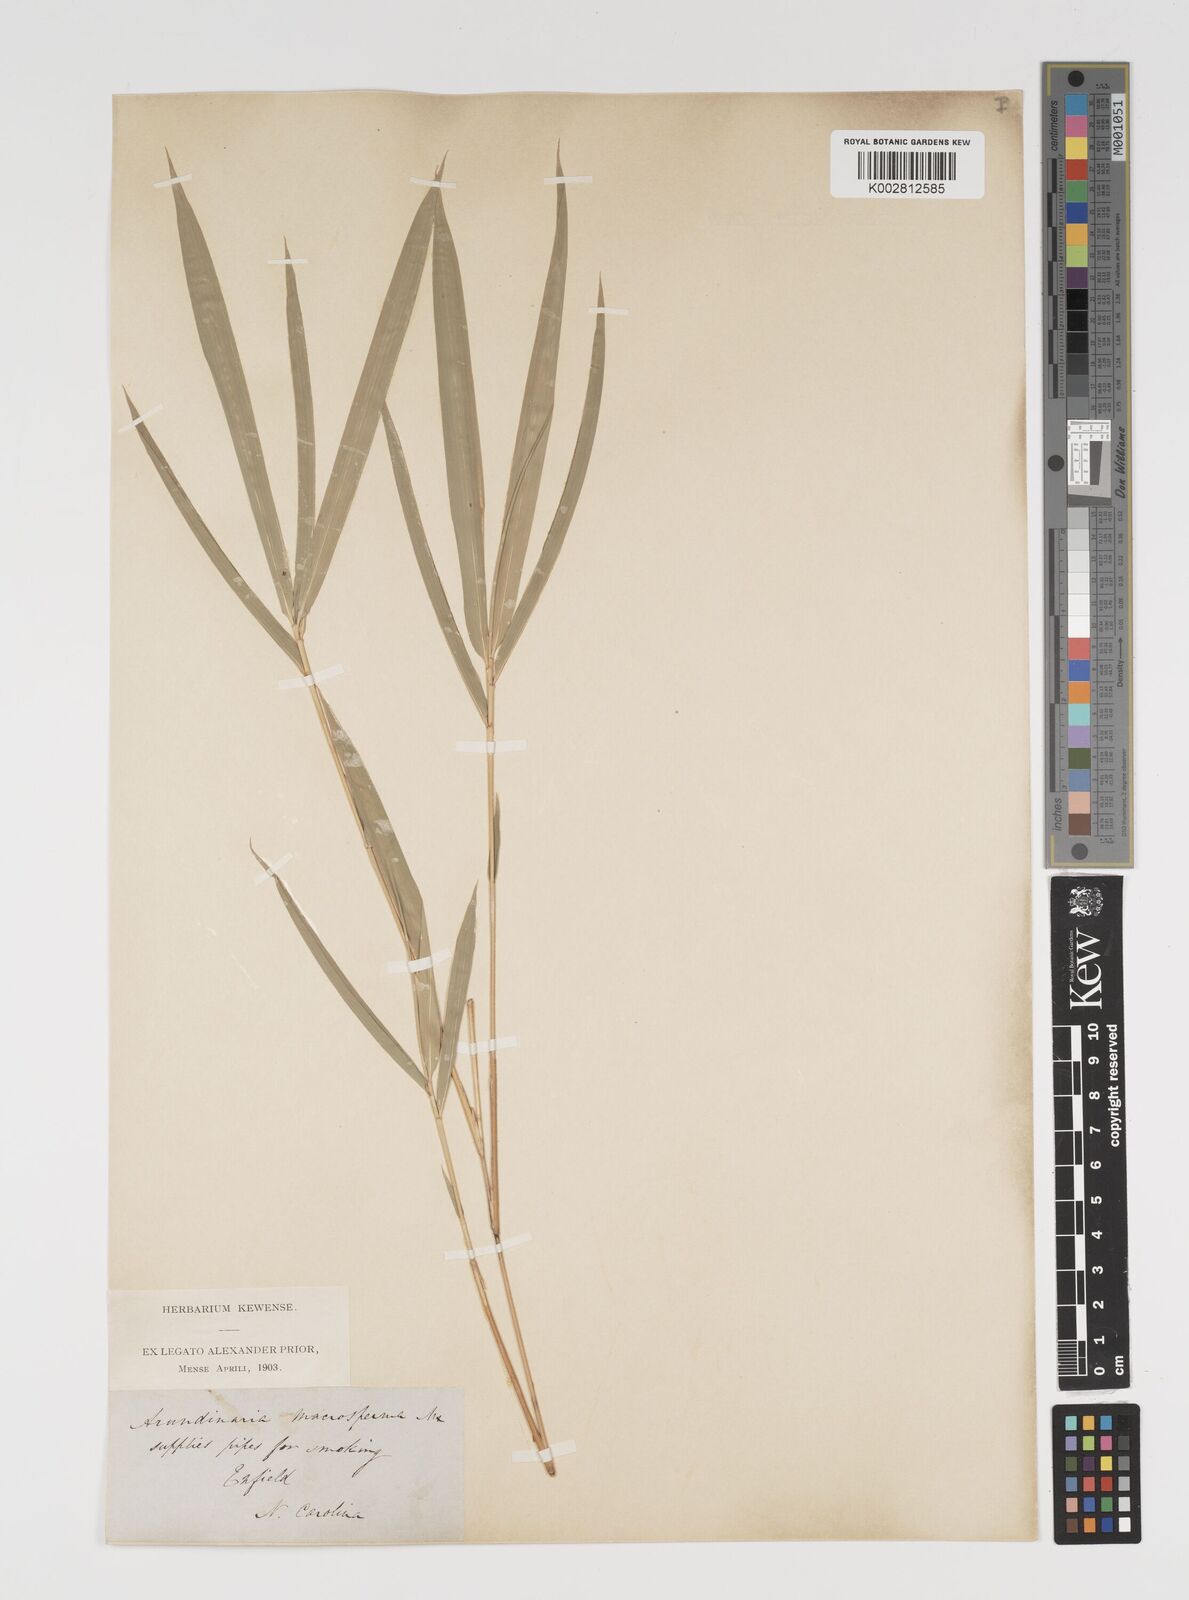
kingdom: Plantae
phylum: Tracheophyta
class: Liliopsida
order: Poales
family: Poaceae
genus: Arundinaria
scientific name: Arundinaria gigantea
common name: Giant cane
